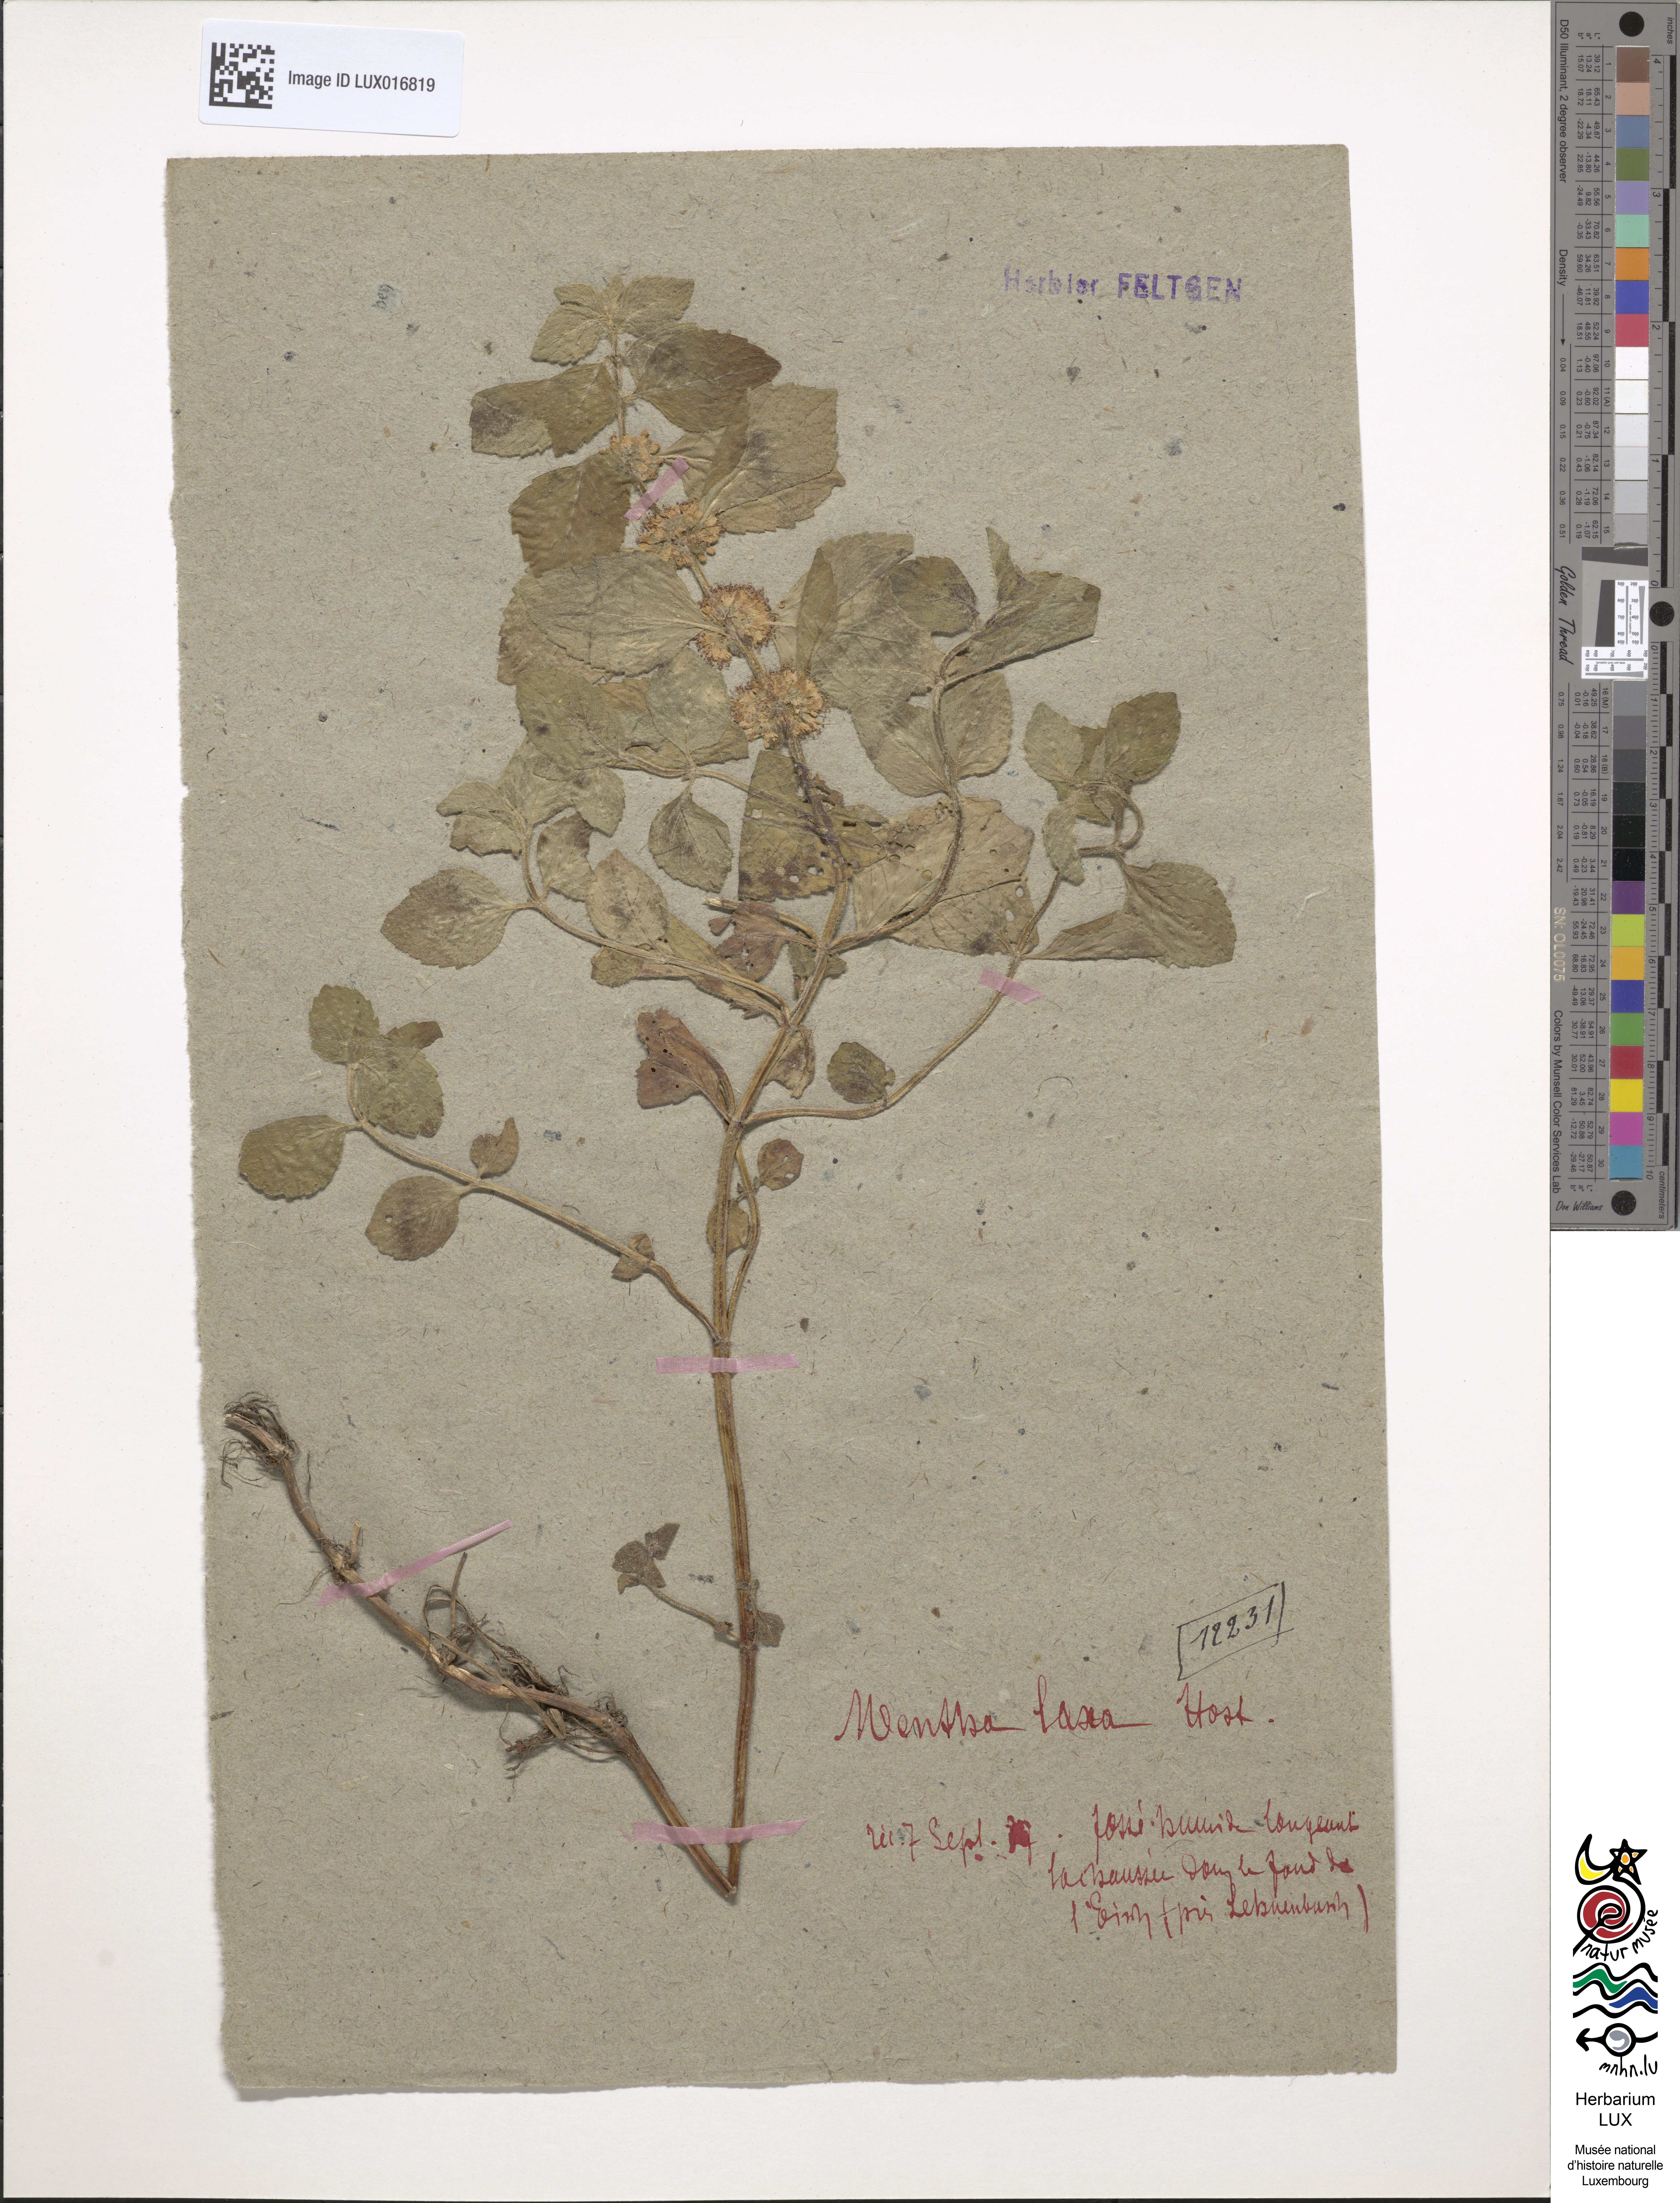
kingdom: Plantae
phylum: Tracheophyta
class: Magnoliopsida
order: Lamiales
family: Lamiaceae
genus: Mentha
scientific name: Mentha arvensis
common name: Corn mint
